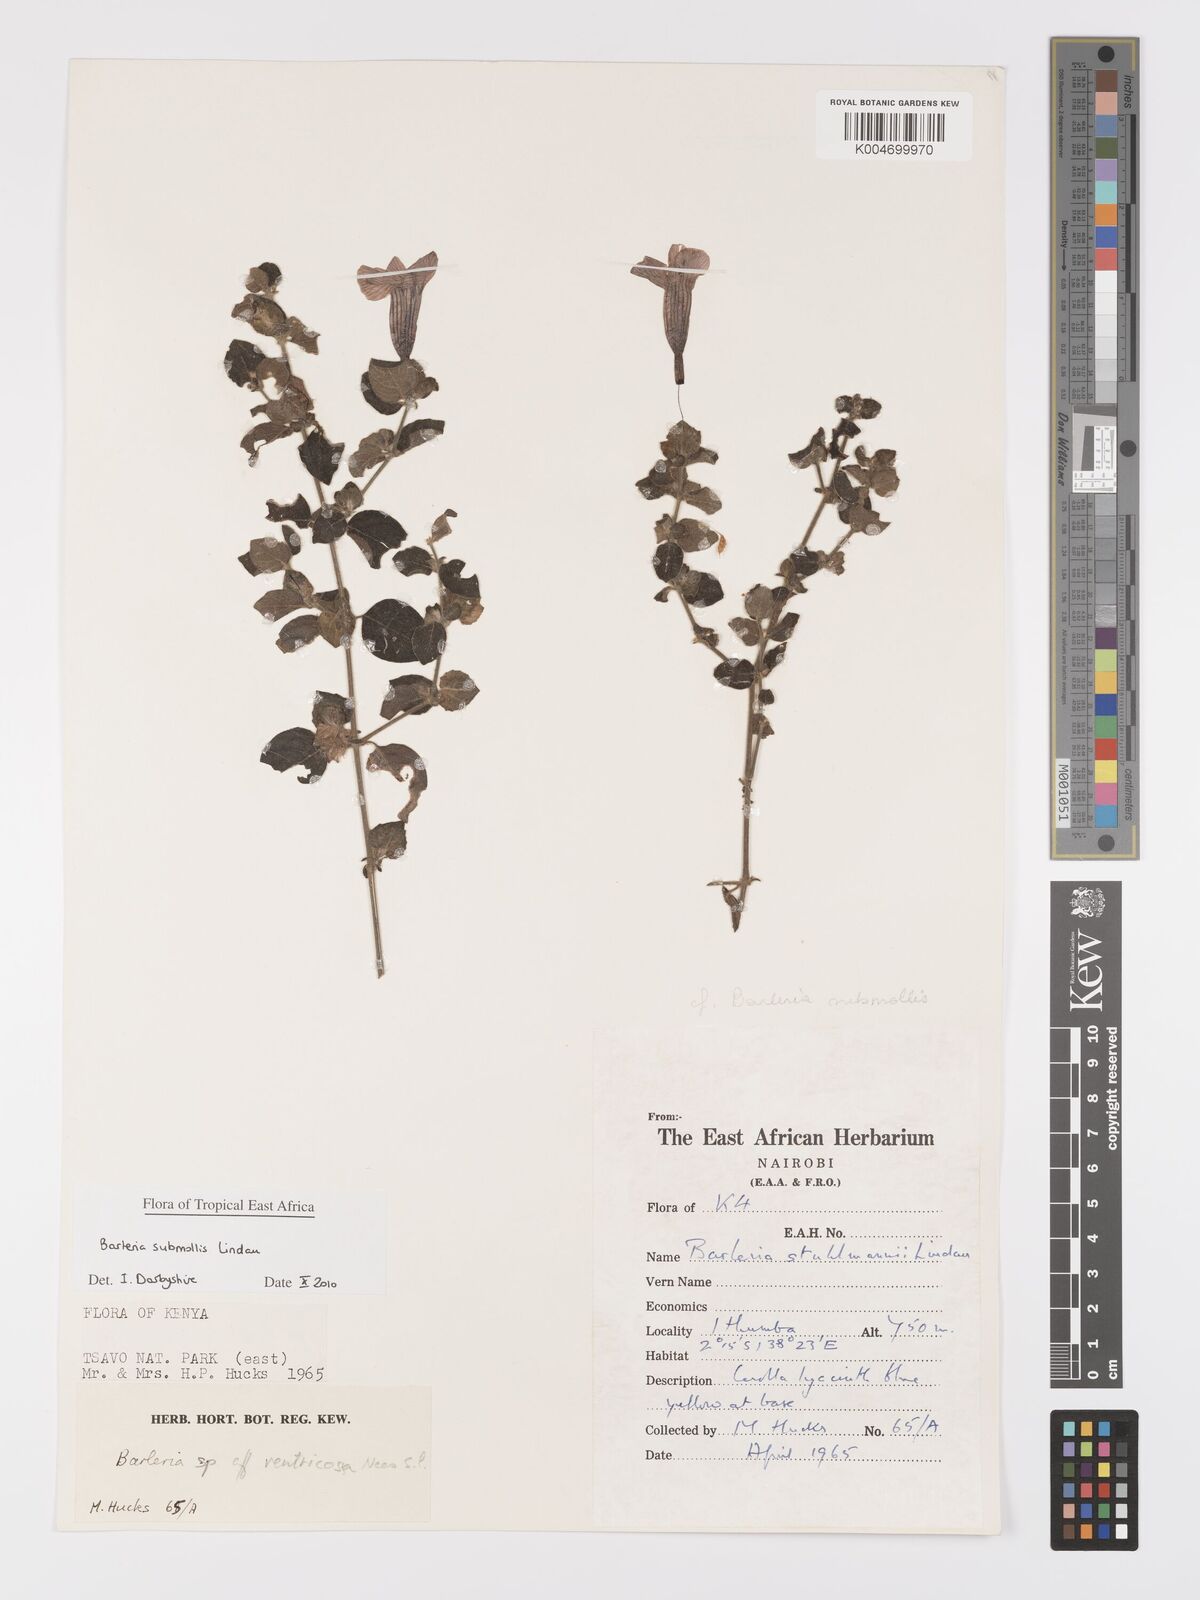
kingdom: Plantae
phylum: Tracheophyta
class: Magnoliopsida
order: Lamiales
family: Acanthaceae
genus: Barleria
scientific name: Barleria submollis
